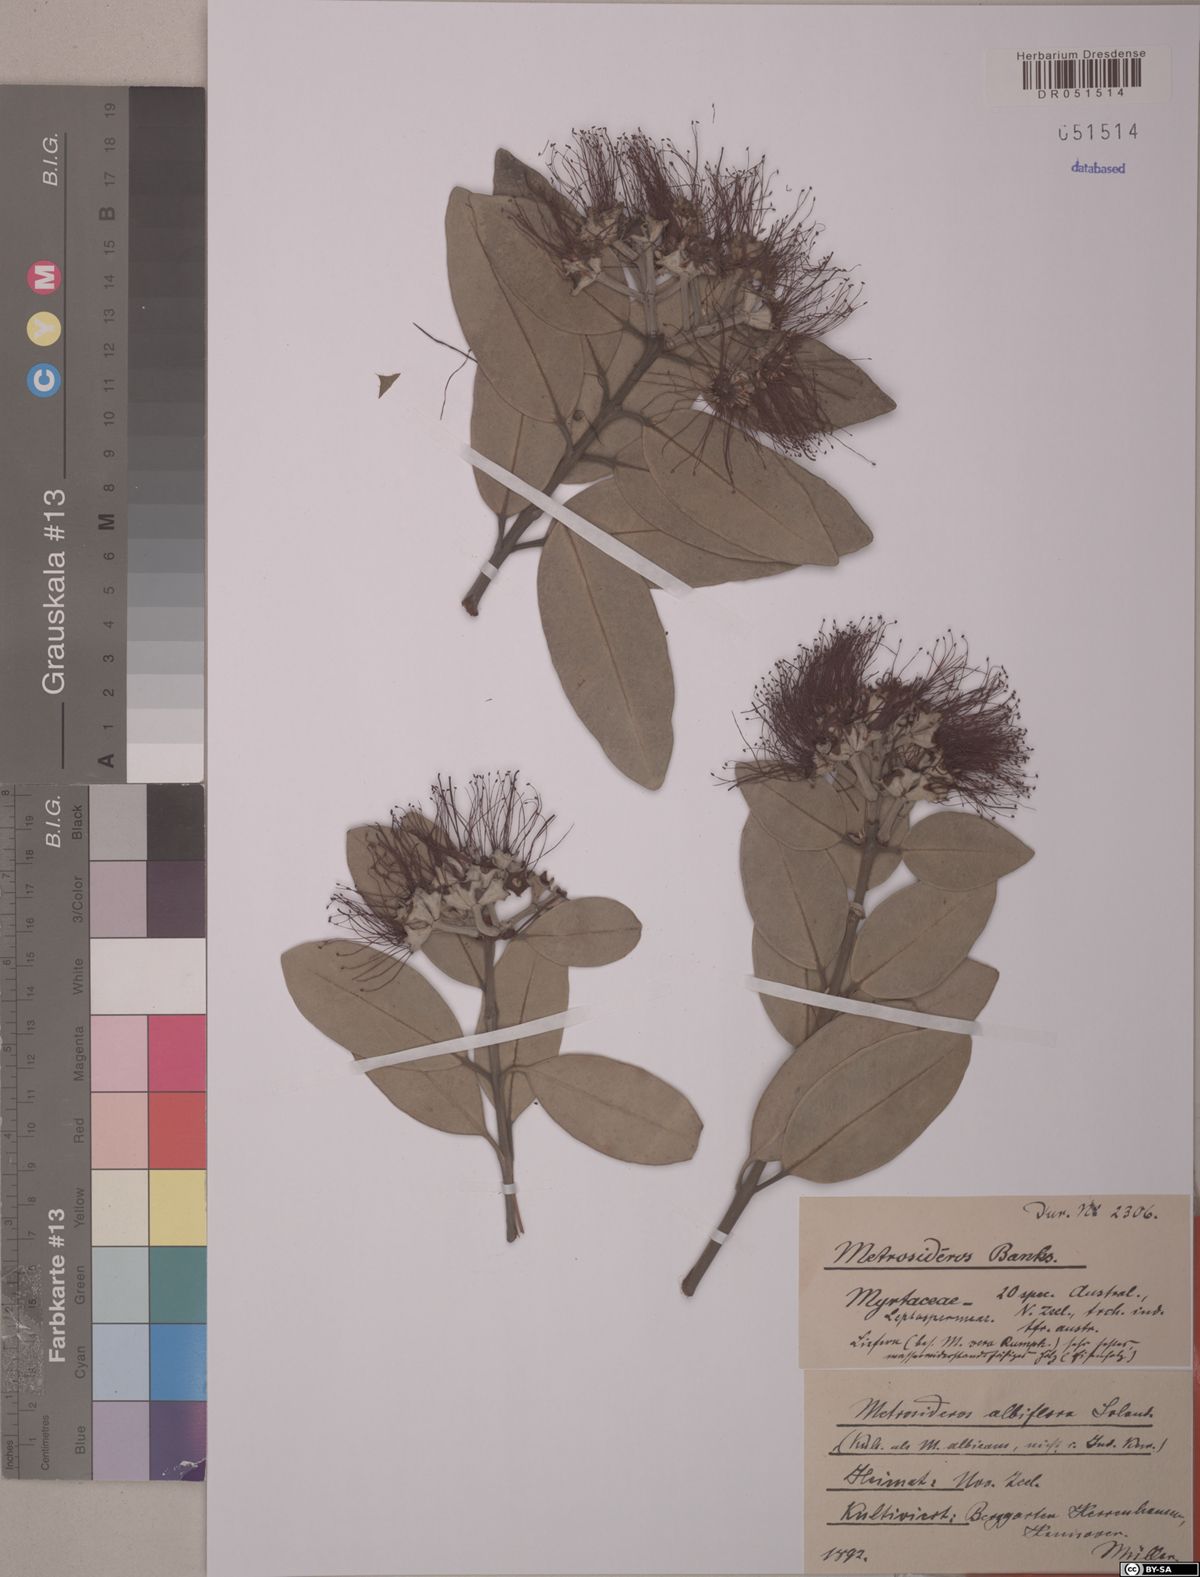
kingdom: Plantae
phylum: Tracheophyta
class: Magnoliopsida
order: Myrtales
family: Myrtaceae
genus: Metrosideros
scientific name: Metrosideros albiflora
